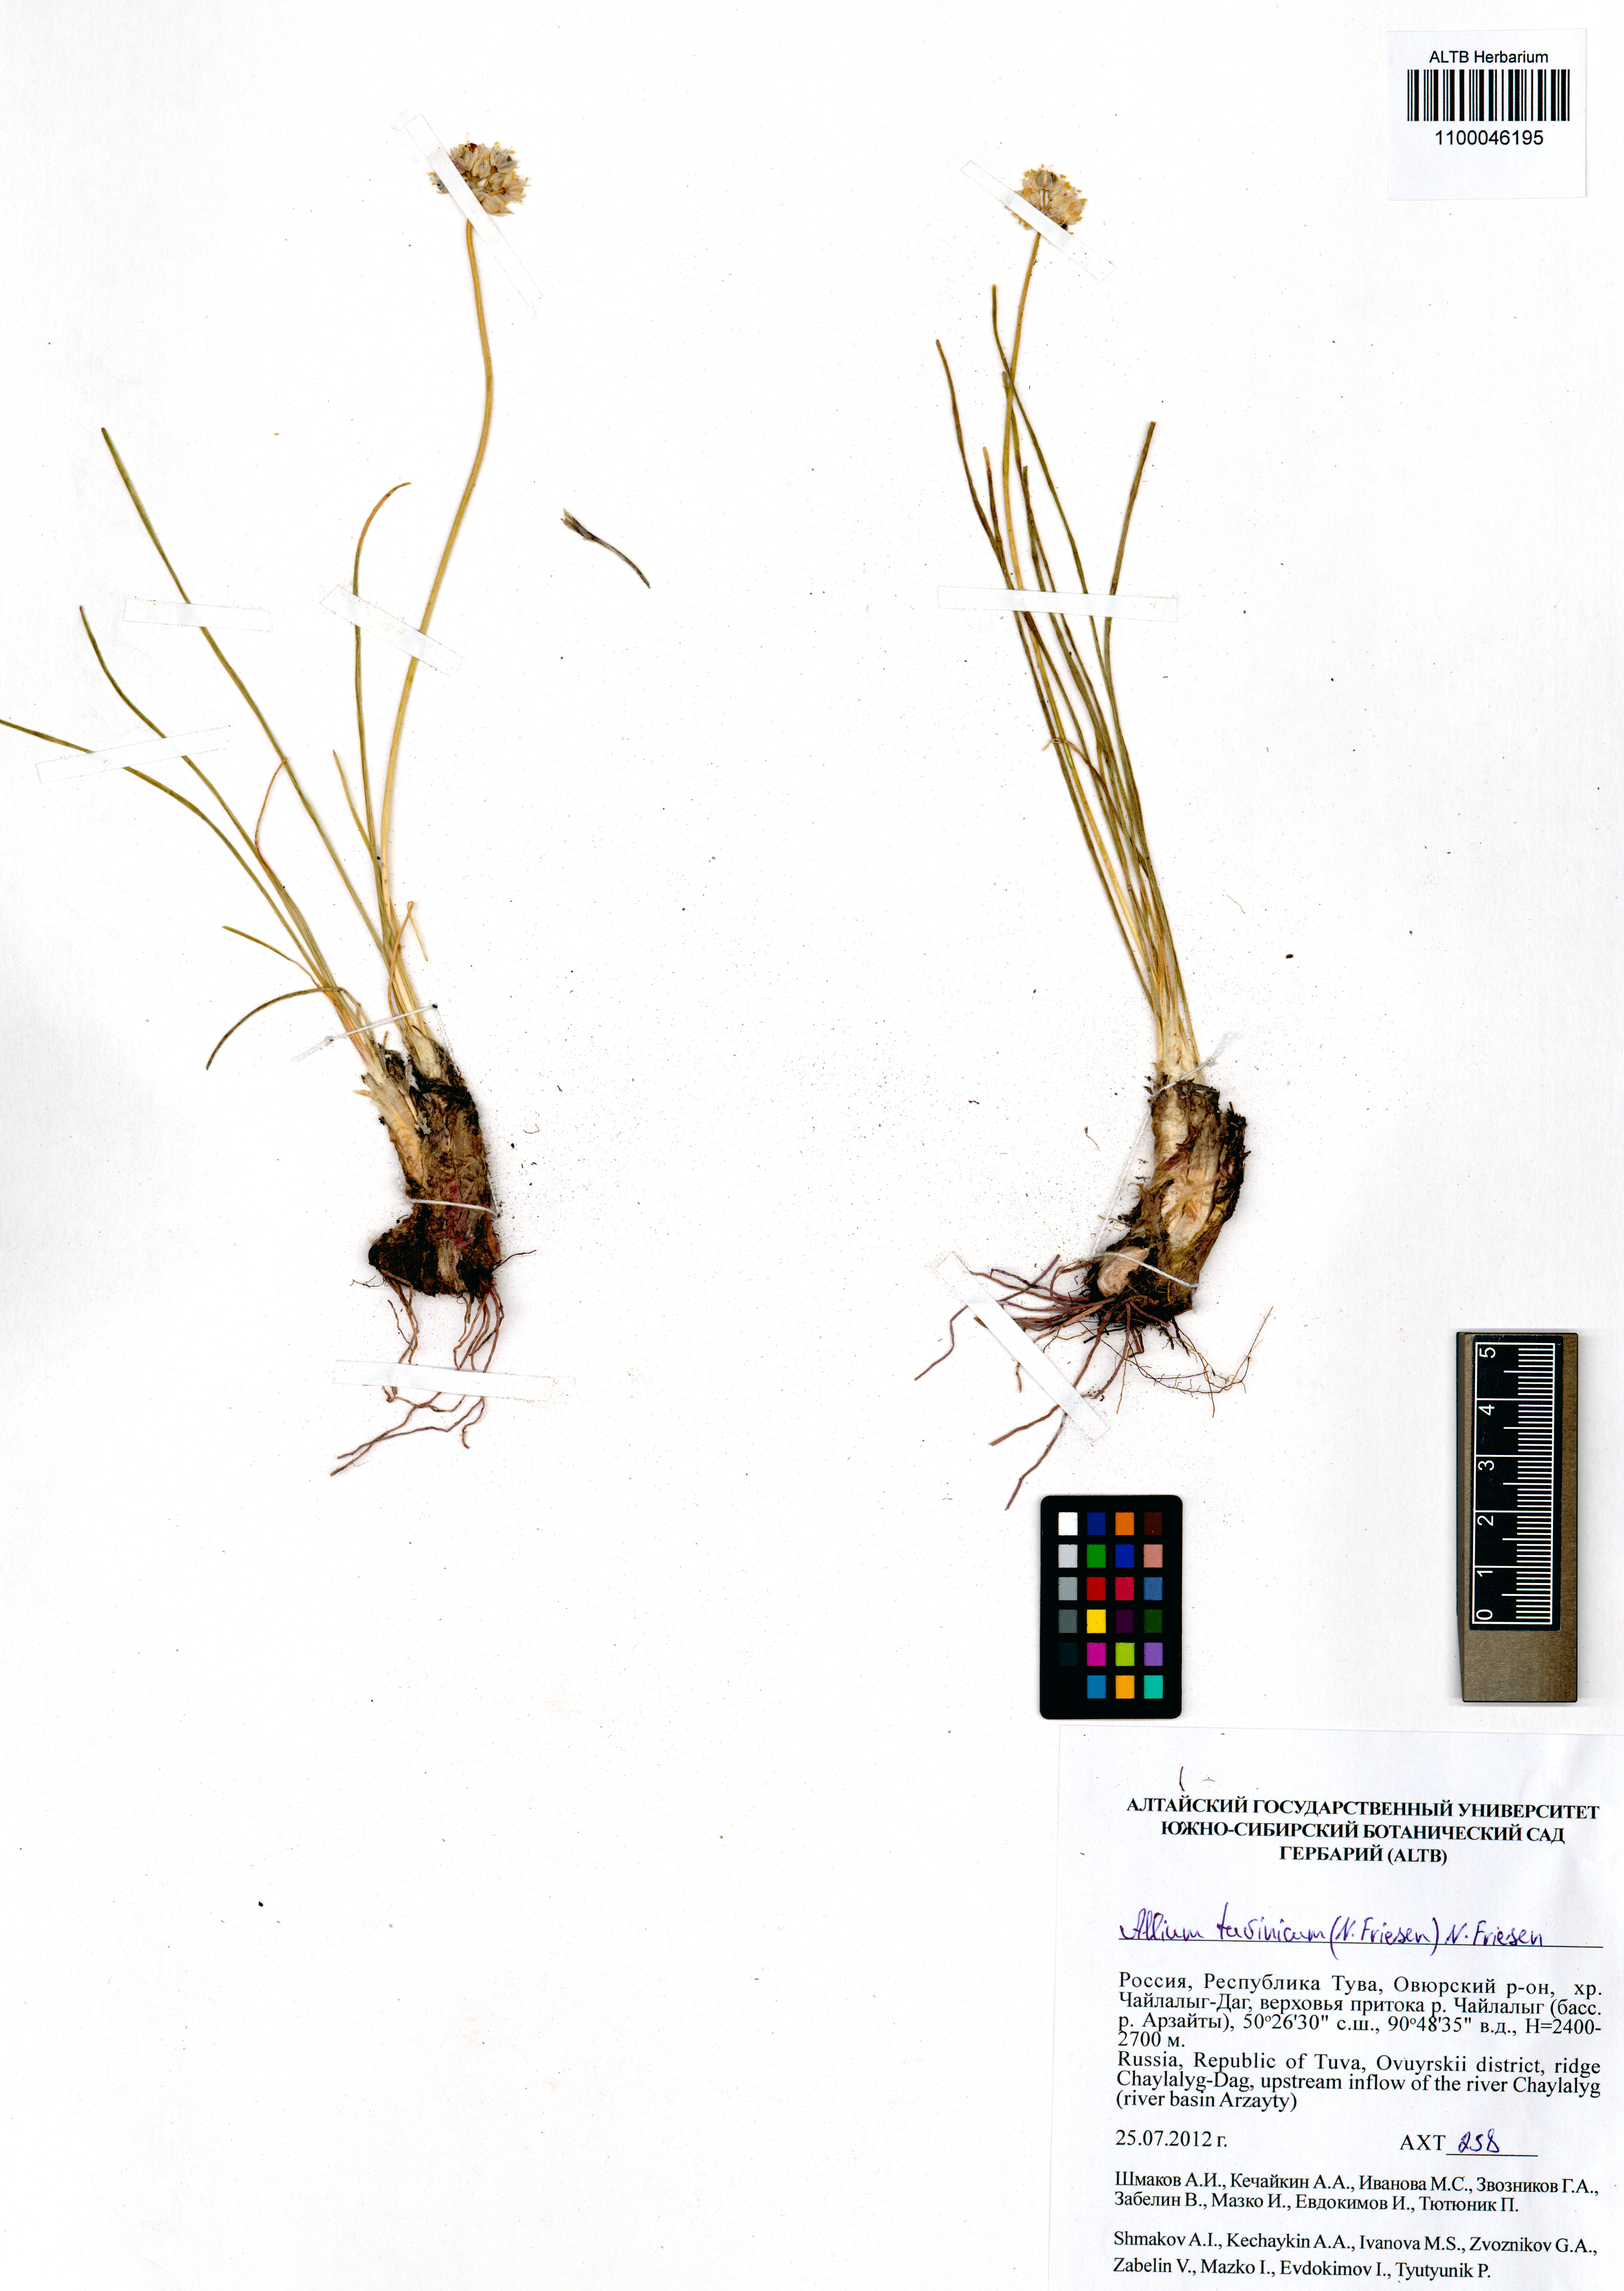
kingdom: Plantae
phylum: Tracheophyta
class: Liliopsida
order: Asparagales
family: Amaryllidaceae
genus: Allium
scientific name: Allium tuvinicum
